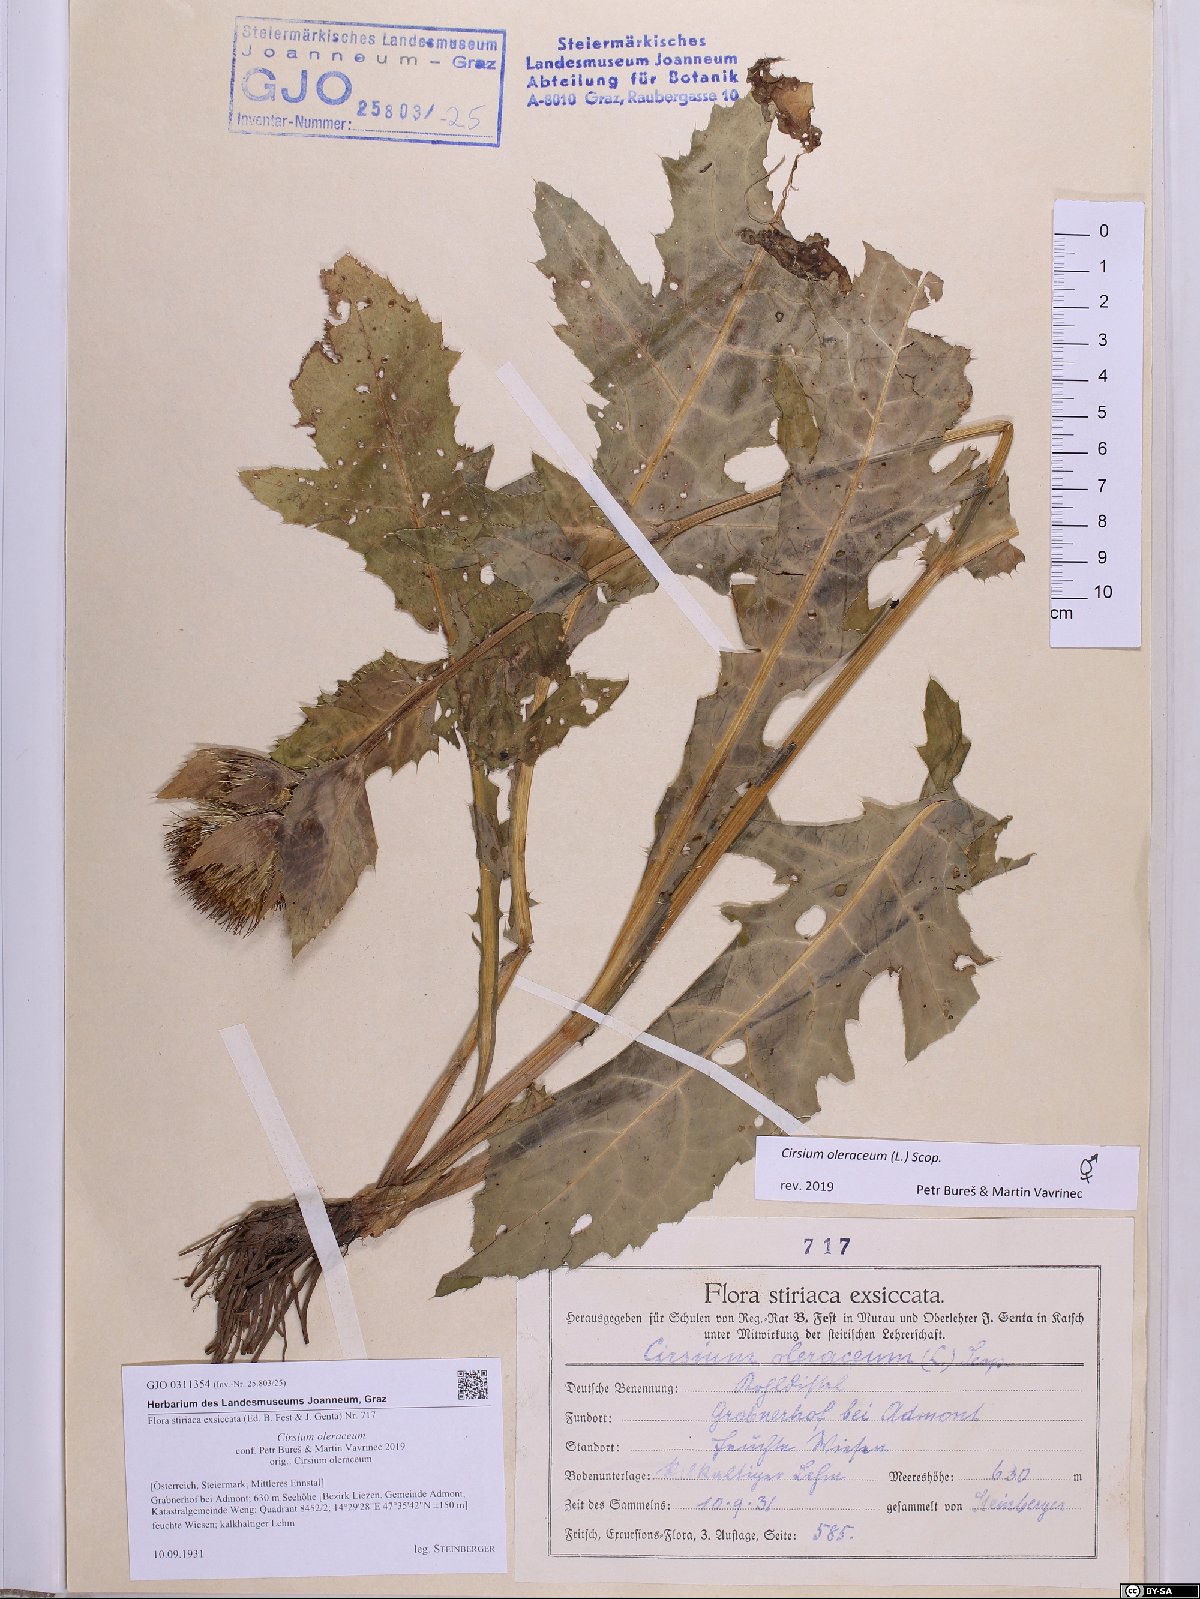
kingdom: Plantae
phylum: Tracheophyta
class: Magnoliopsida
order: Asterales
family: Asteraceae
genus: Cirsium
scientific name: Cirsium oleraceum
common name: Cabbage thistle
